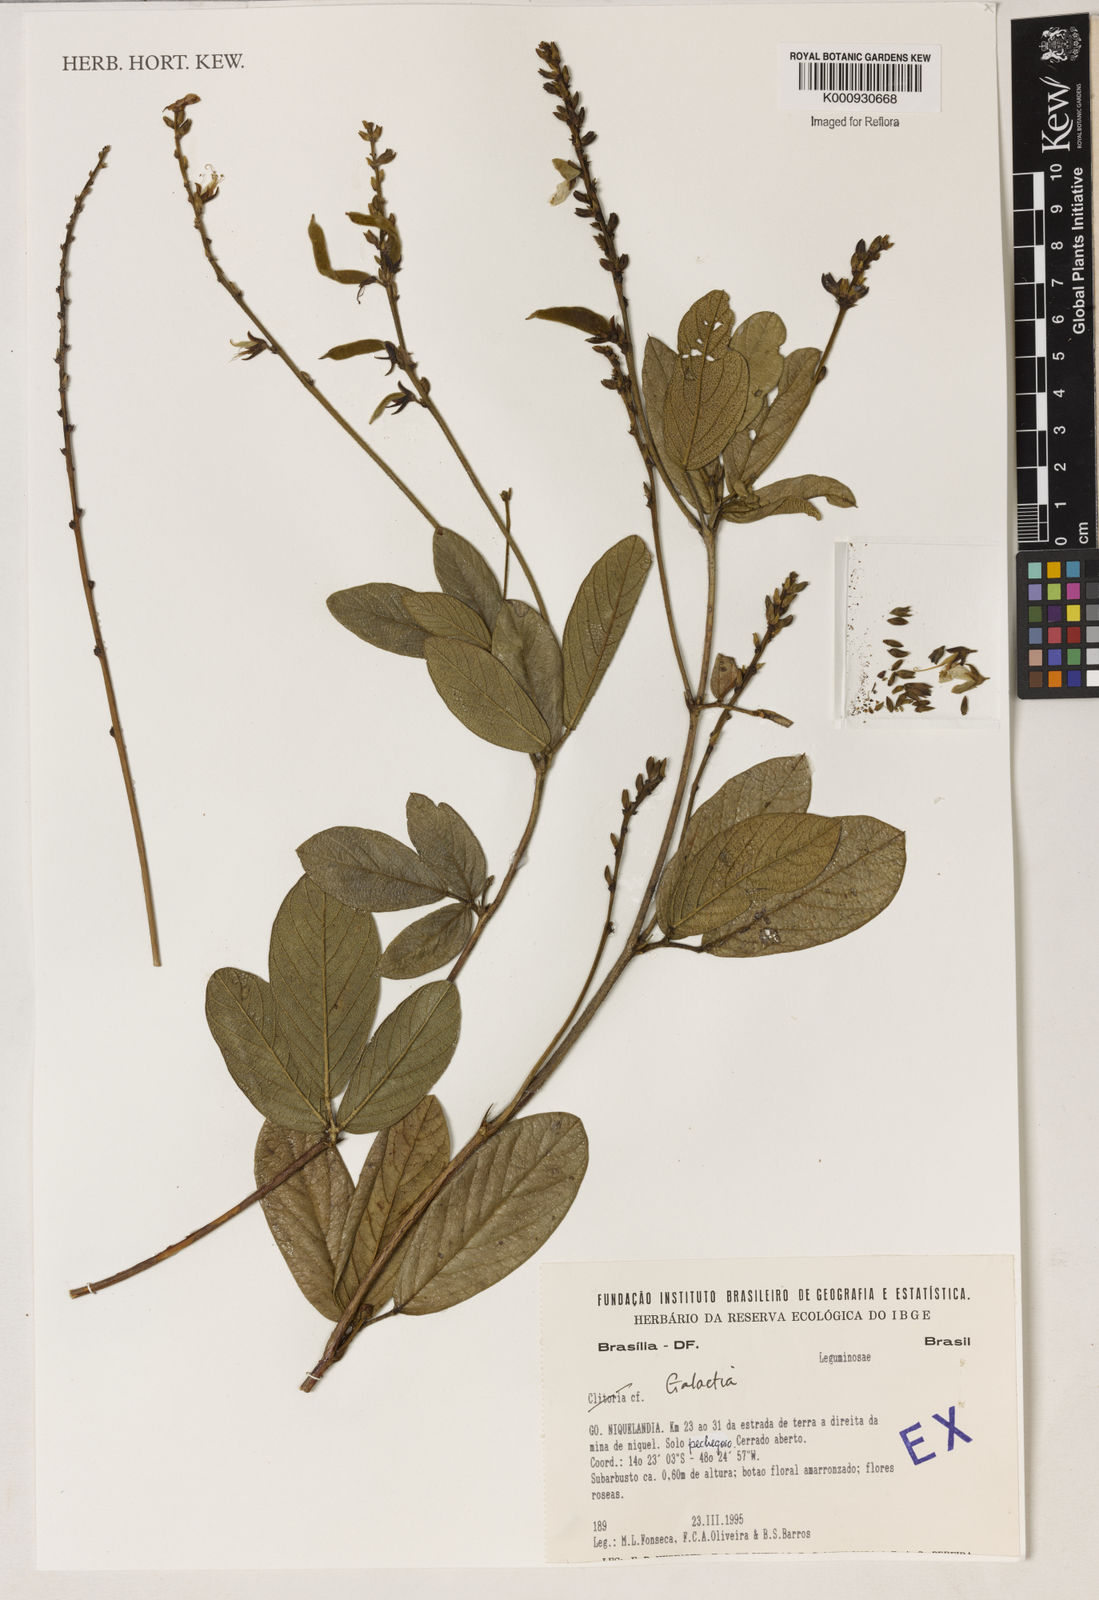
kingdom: Plantae
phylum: Tracheophyta
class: Magnoliopsida
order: Fabales
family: Fabaceae
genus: Galactia
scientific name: Galactia
